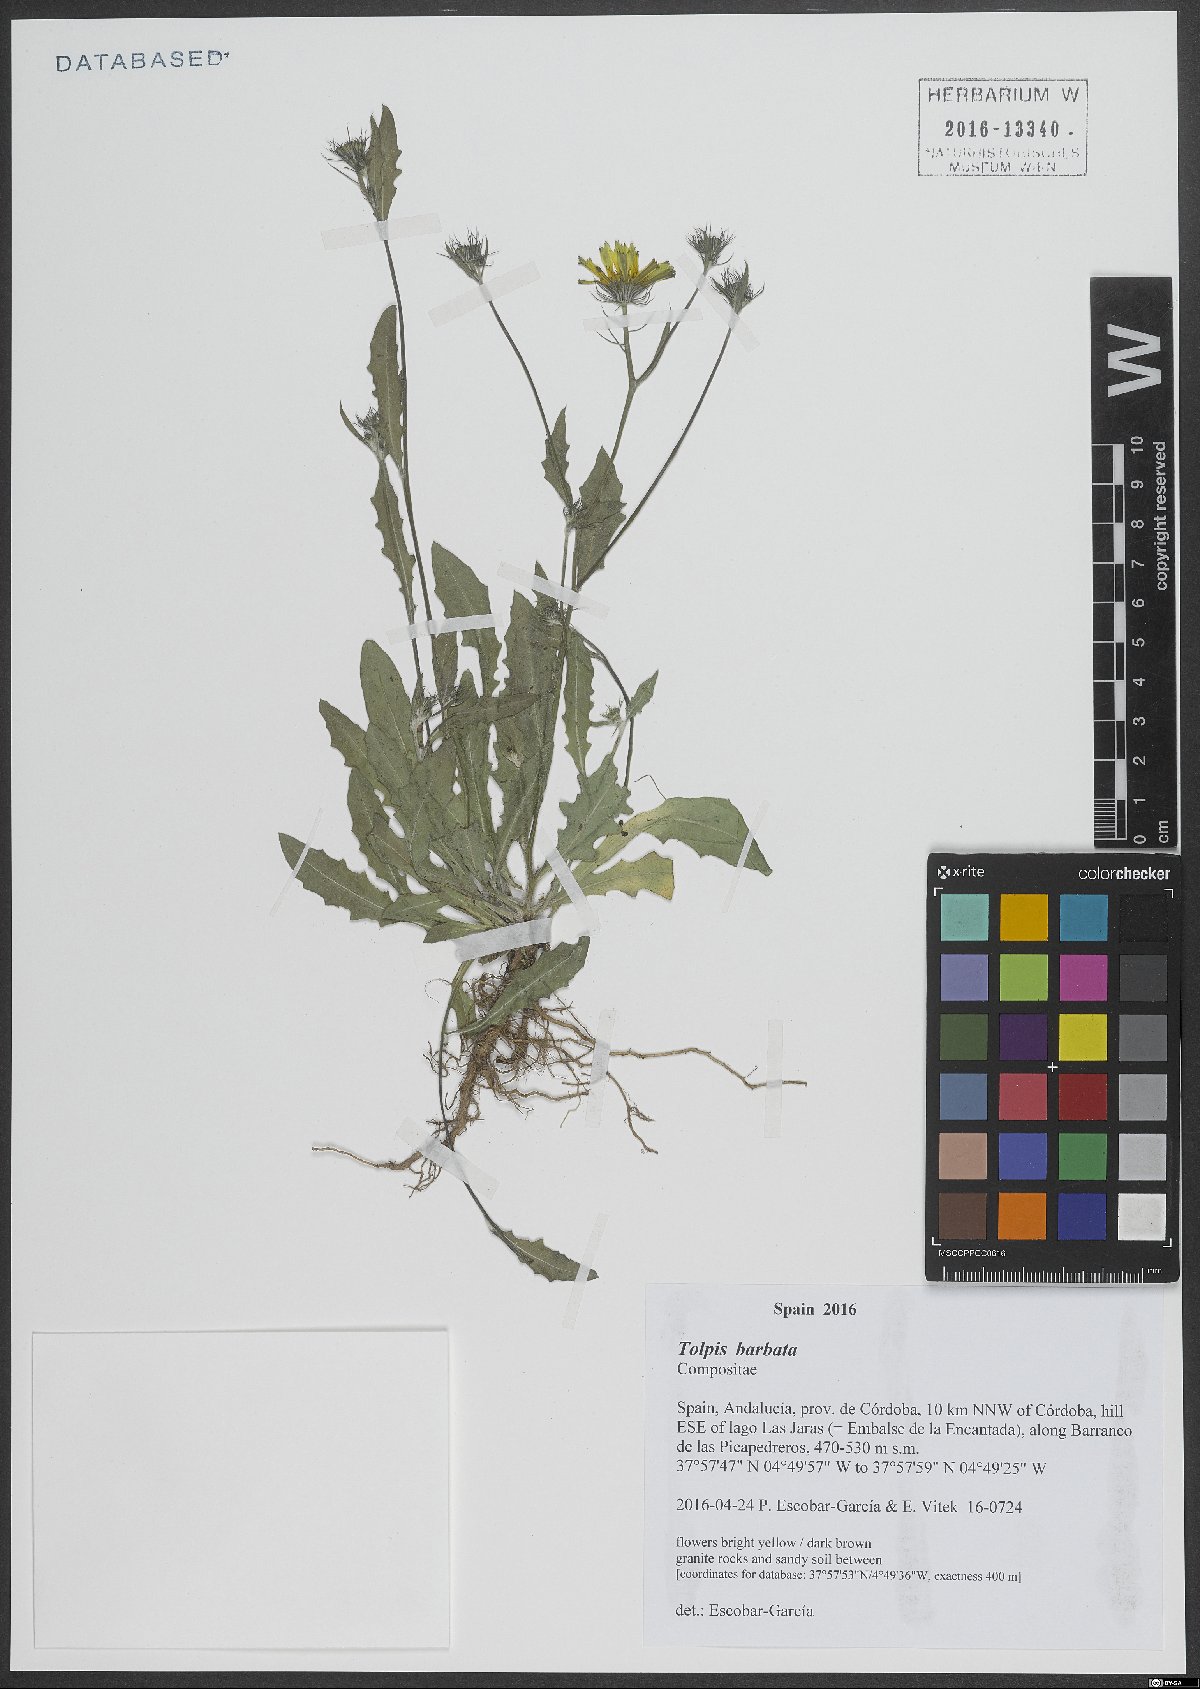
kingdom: Plantae
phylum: Tracheophyta
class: Magnoliopsida
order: Asterales
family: Asteraceae
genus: Tolpis
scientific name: Tolpis barbata
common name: Yellow hawkweed
